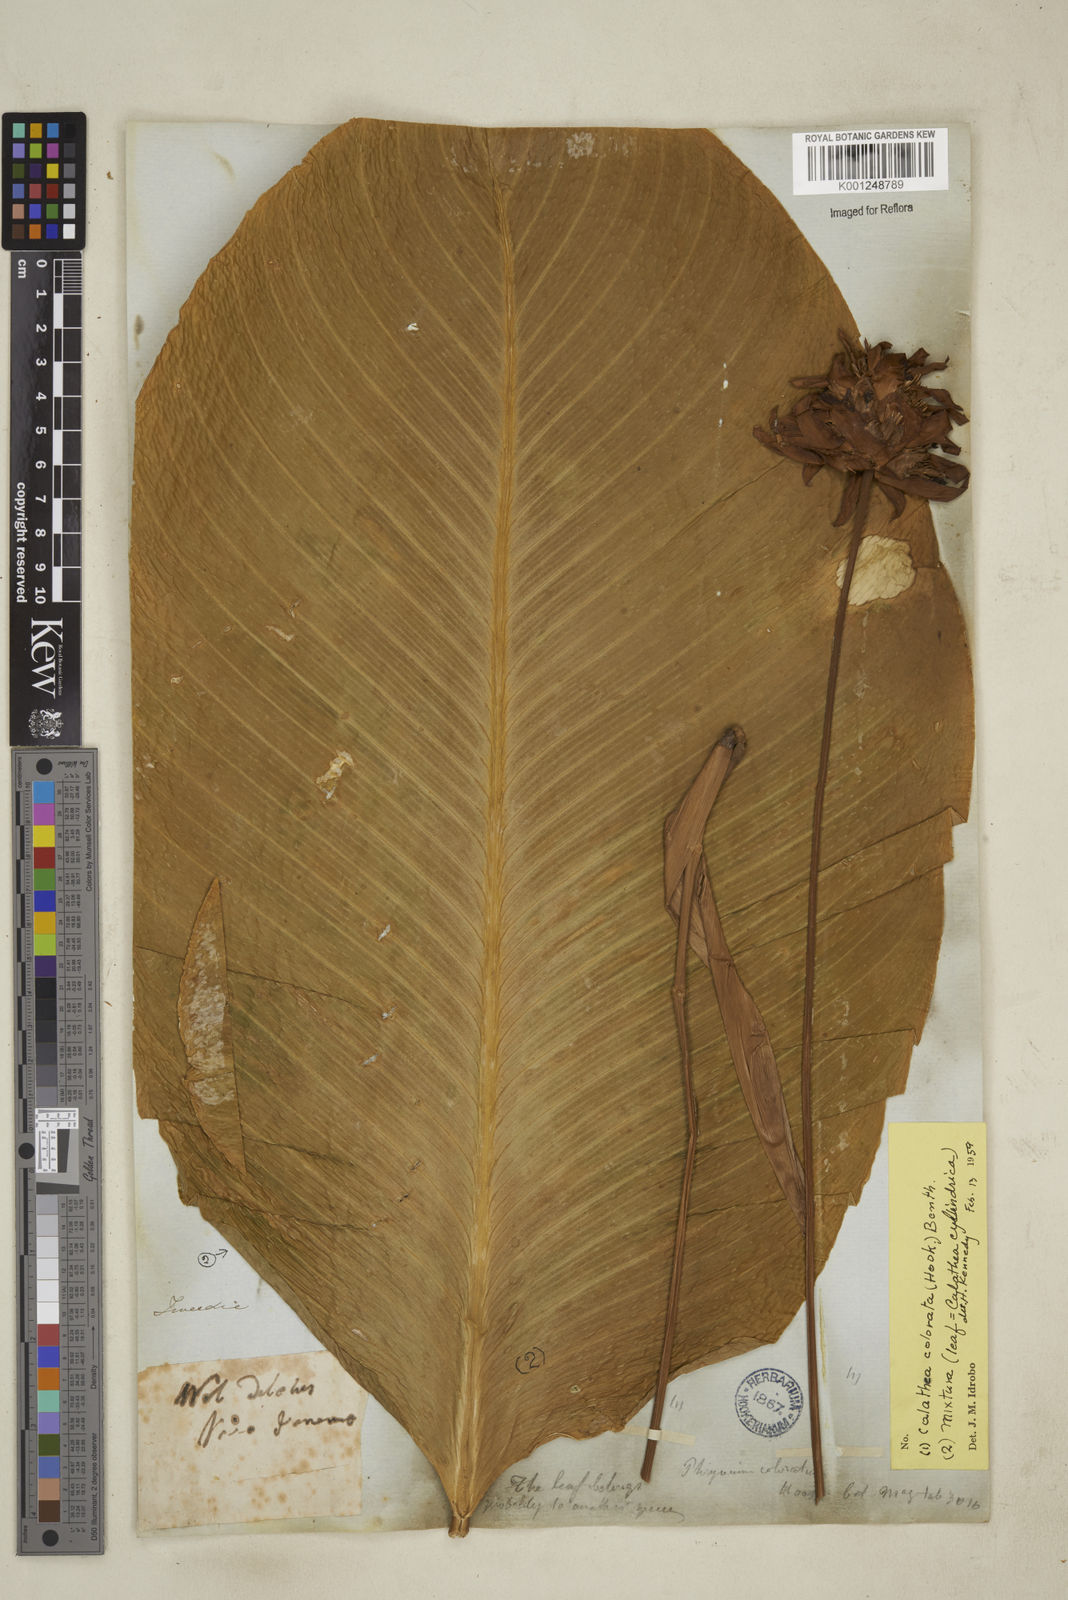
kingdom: Plantae
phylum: Tracheophyta
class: Liliopsida
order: Zingiberales
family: Marantaceae
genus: Goeppertia
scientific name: Goeppertia colorata
